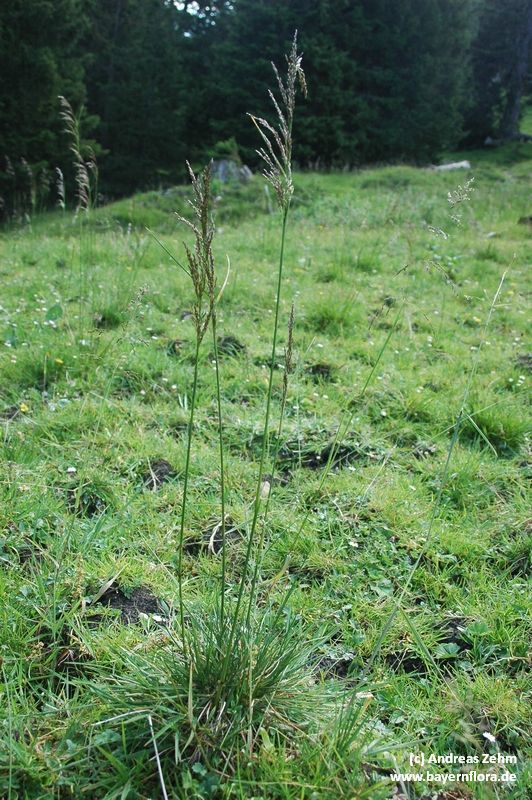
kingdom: Plantae
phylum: Tracheophyta
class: Liliopsida
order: Poales
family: Poaceae
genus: Deschampsia
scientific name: Deschampsia cespitosa
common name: Tufted hair-grass
